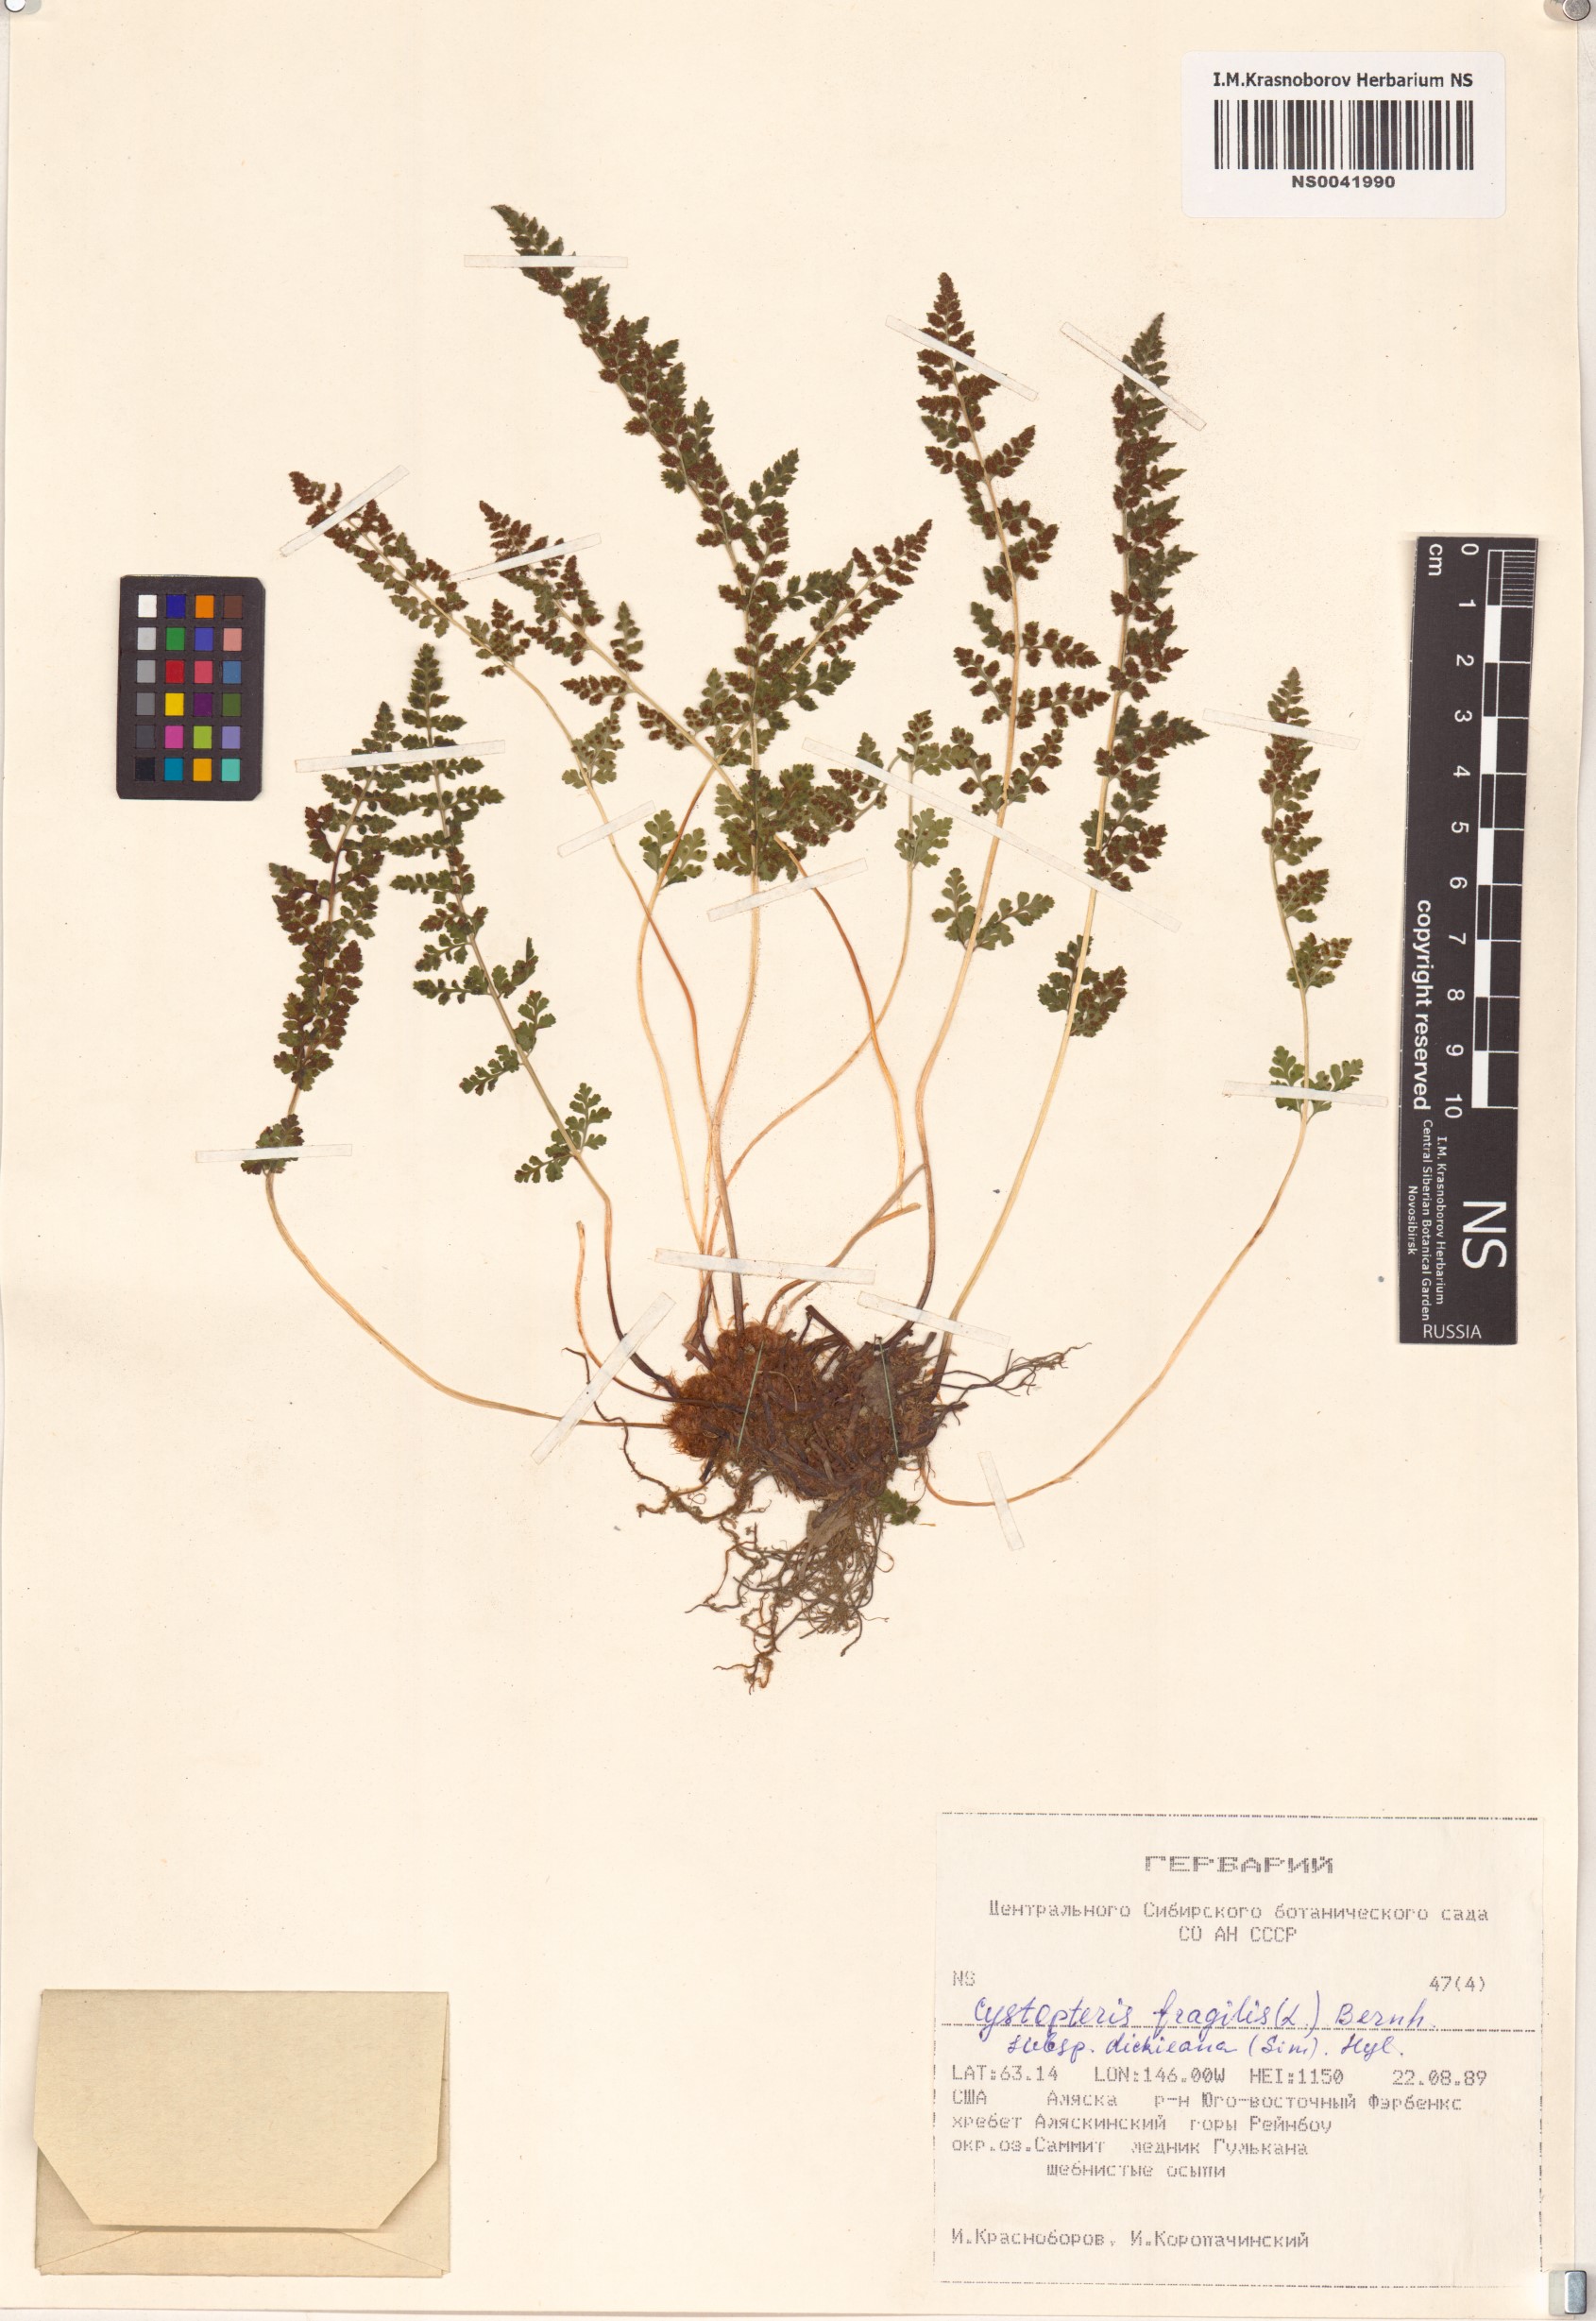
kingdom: Plantae
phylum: Tracheophyta
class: Polypodiopsida
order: Polypodiales
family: Cystopteridaceae
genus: Cystopteris
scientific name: Cystopteris dickieana
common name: Dickie's bladder-fern
